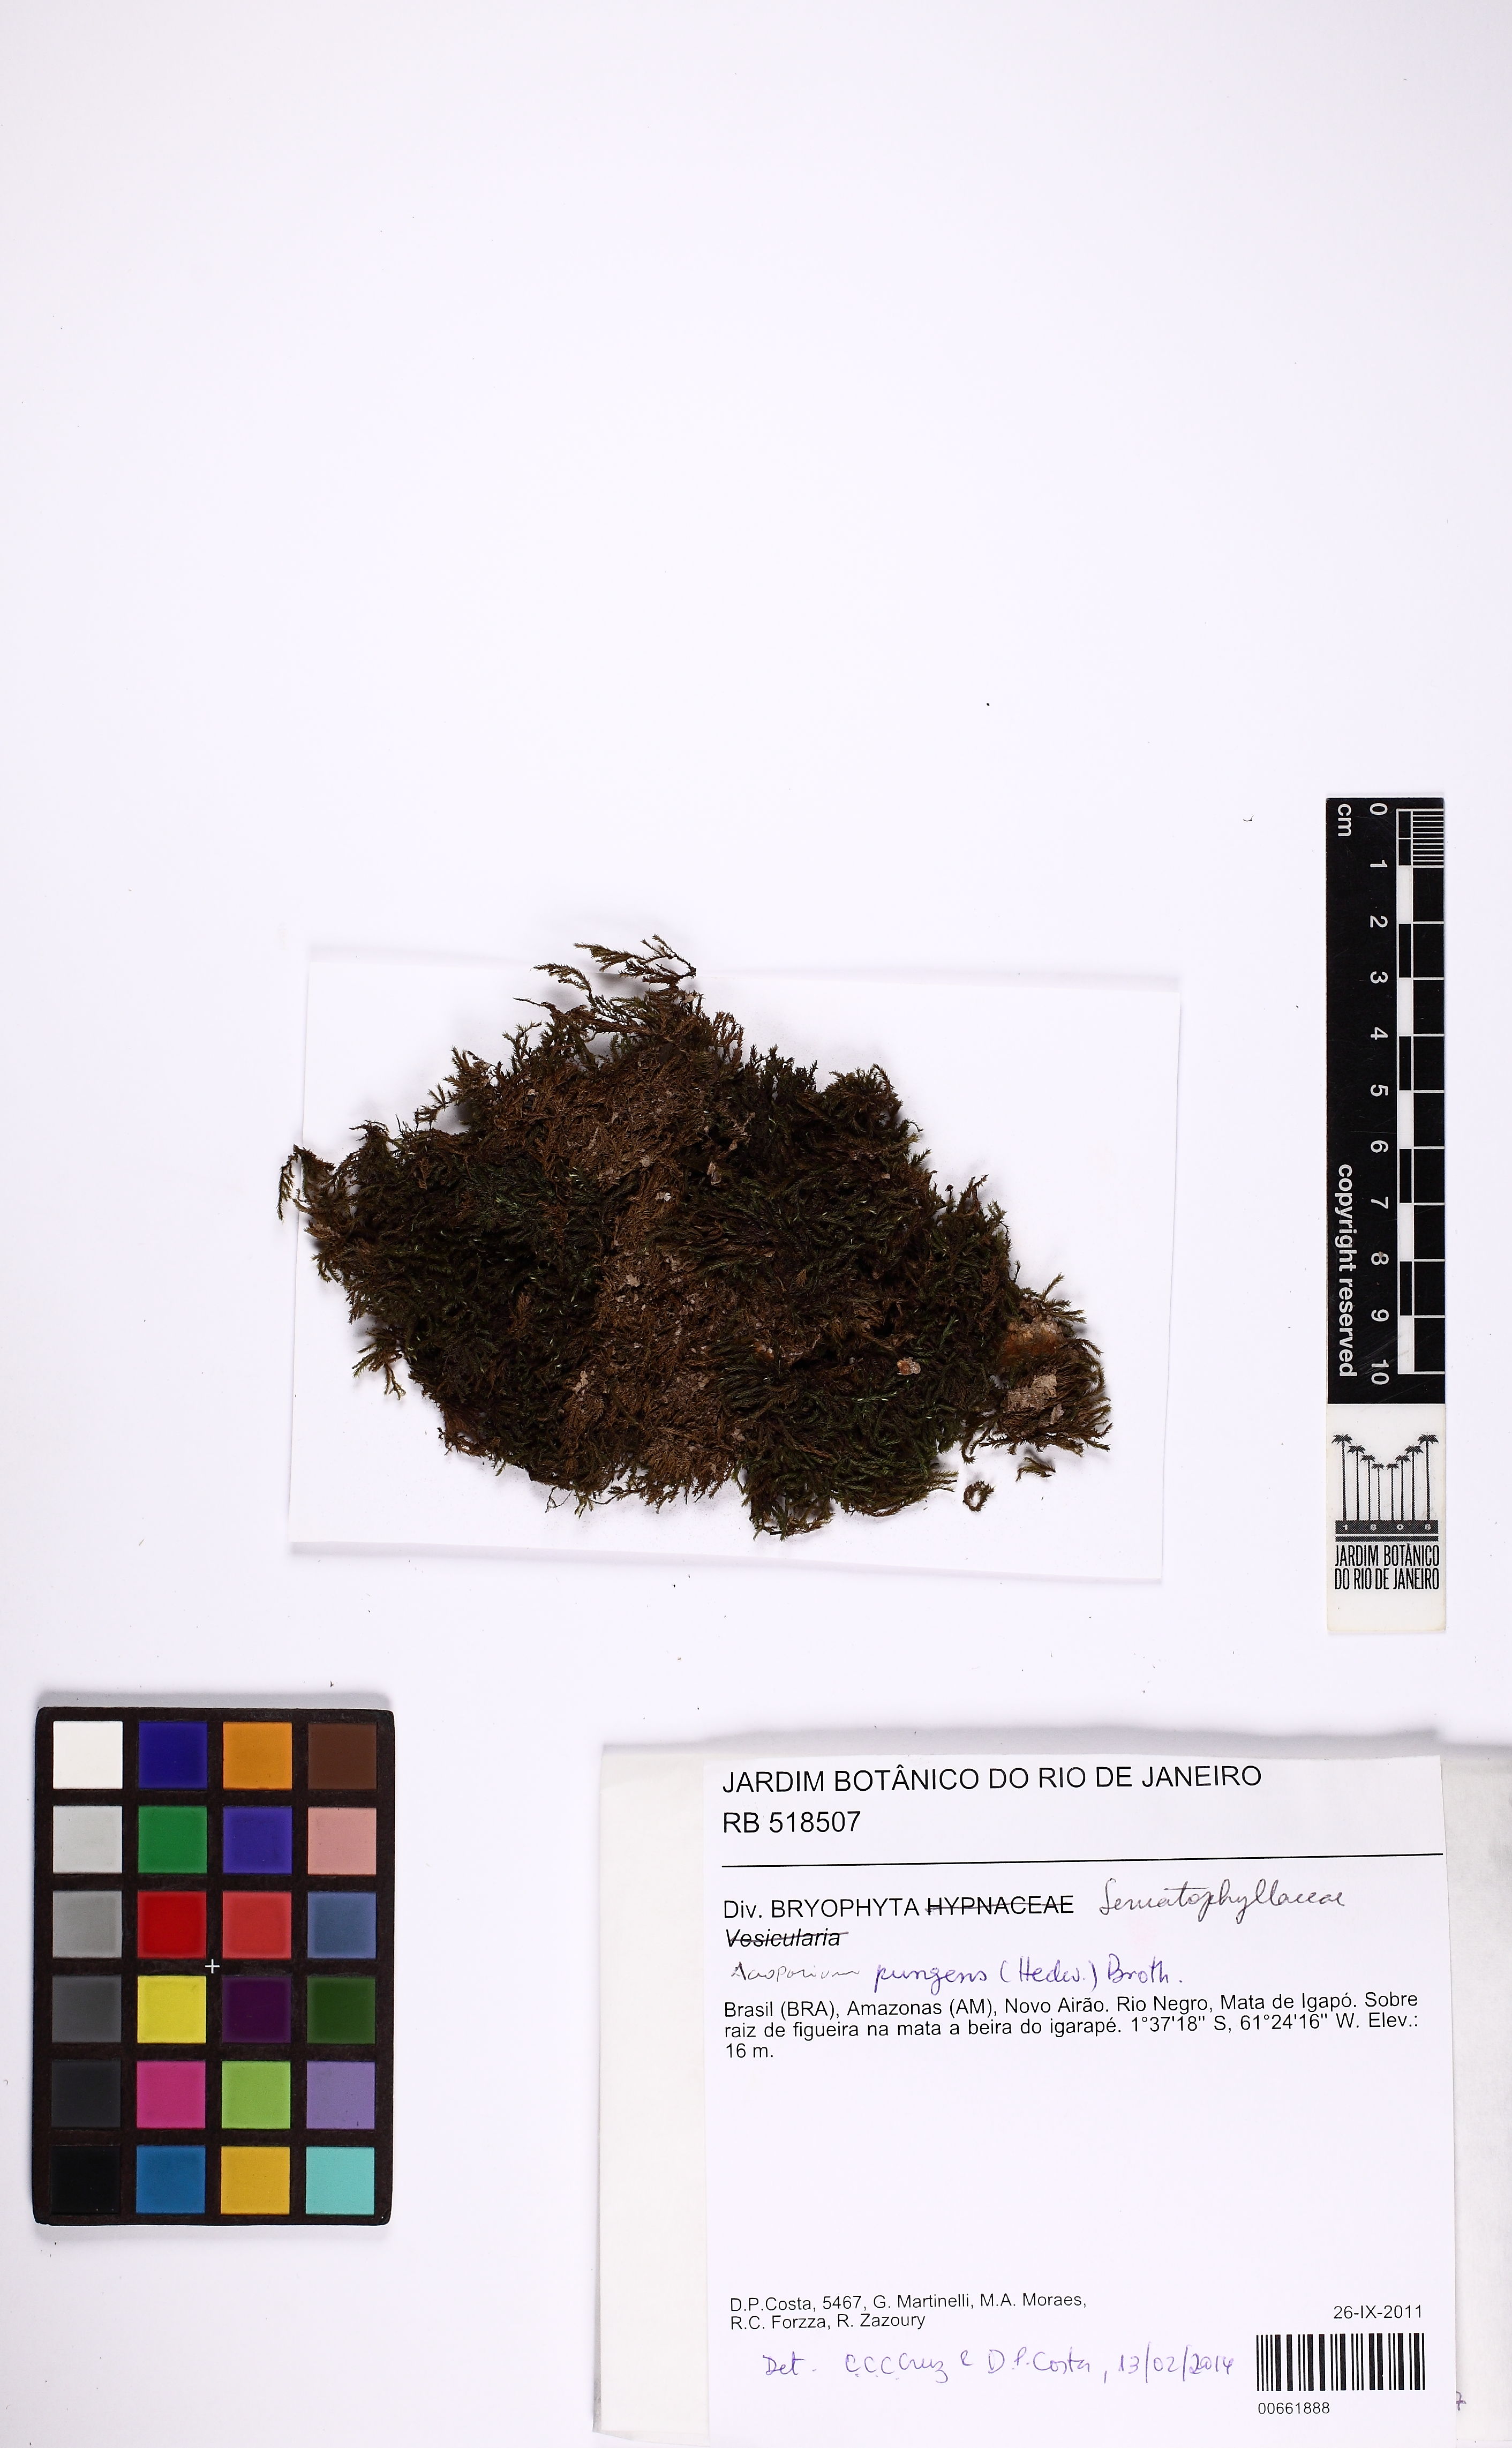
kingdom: Plantae
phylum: Bryophyta
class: Bryopsida
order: Hypnales
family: Sematophyllaceae
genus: Acroporium
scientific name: Acroporium pungens
